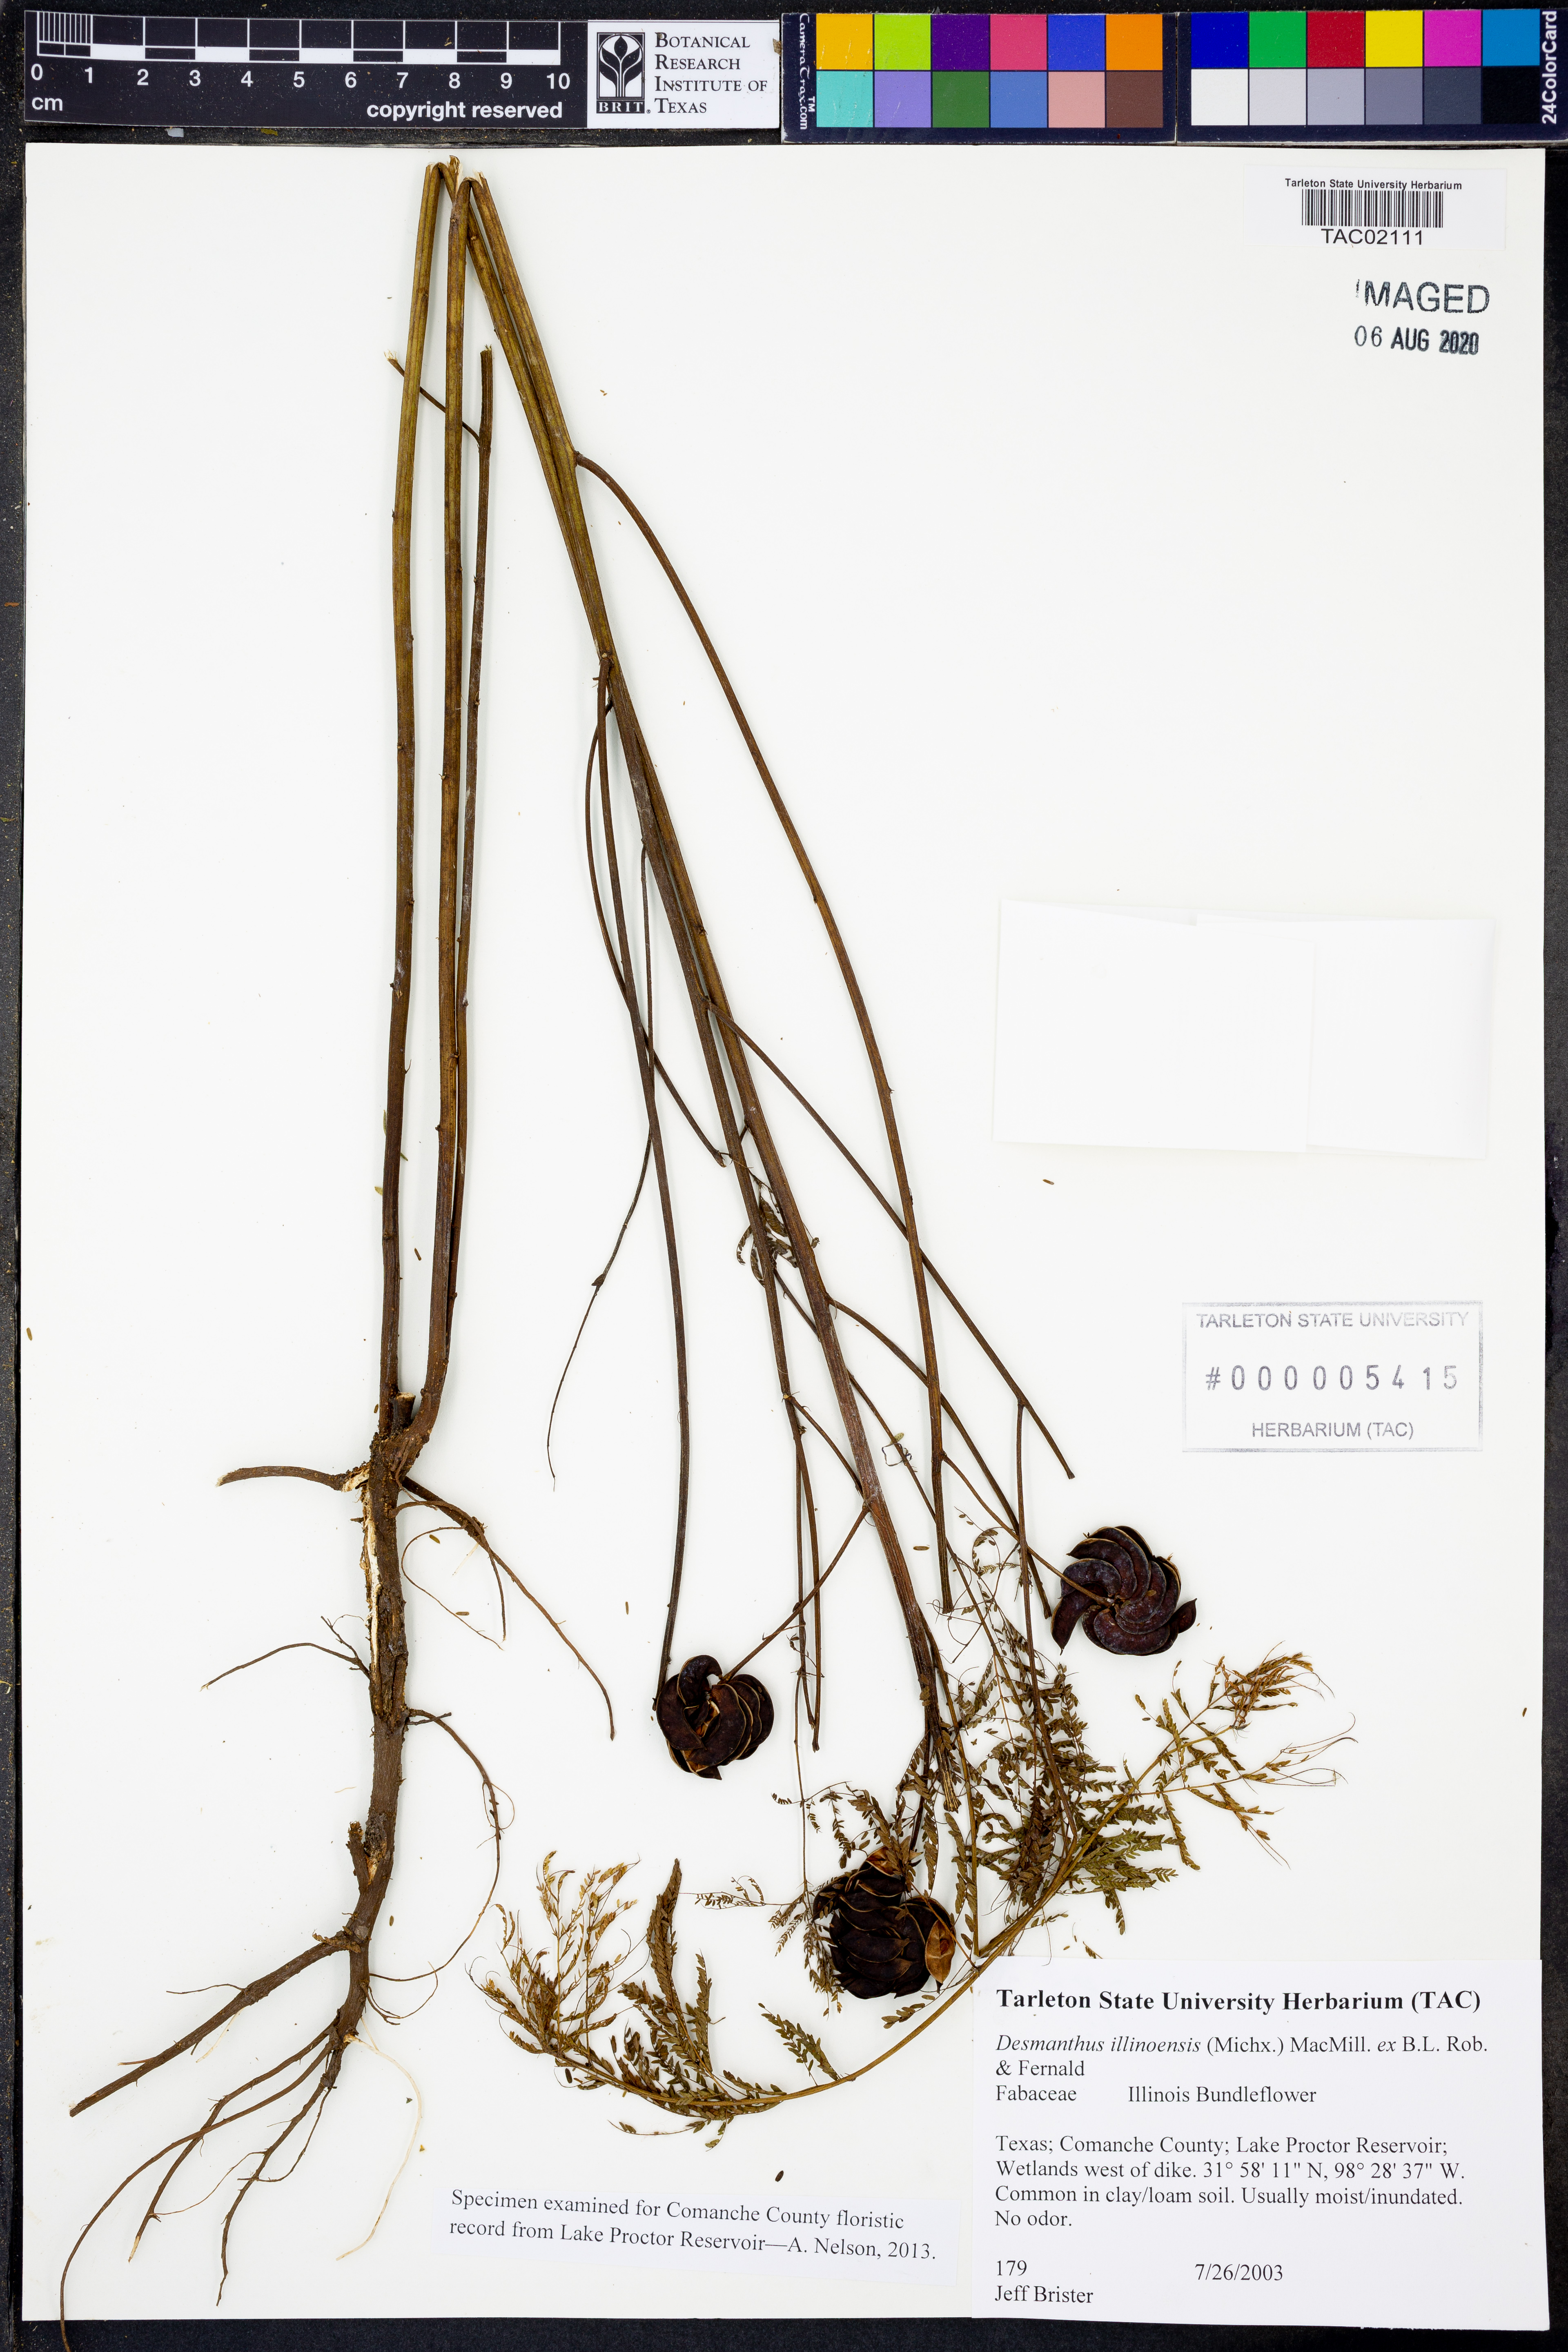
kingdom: Plantae
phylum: Tracheophyta
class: Magnoliopsida
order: Fabales
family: Fabaceae
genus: Desmanthus
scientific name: Desmanthus illinoensis
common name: Illinois bundle-flower
